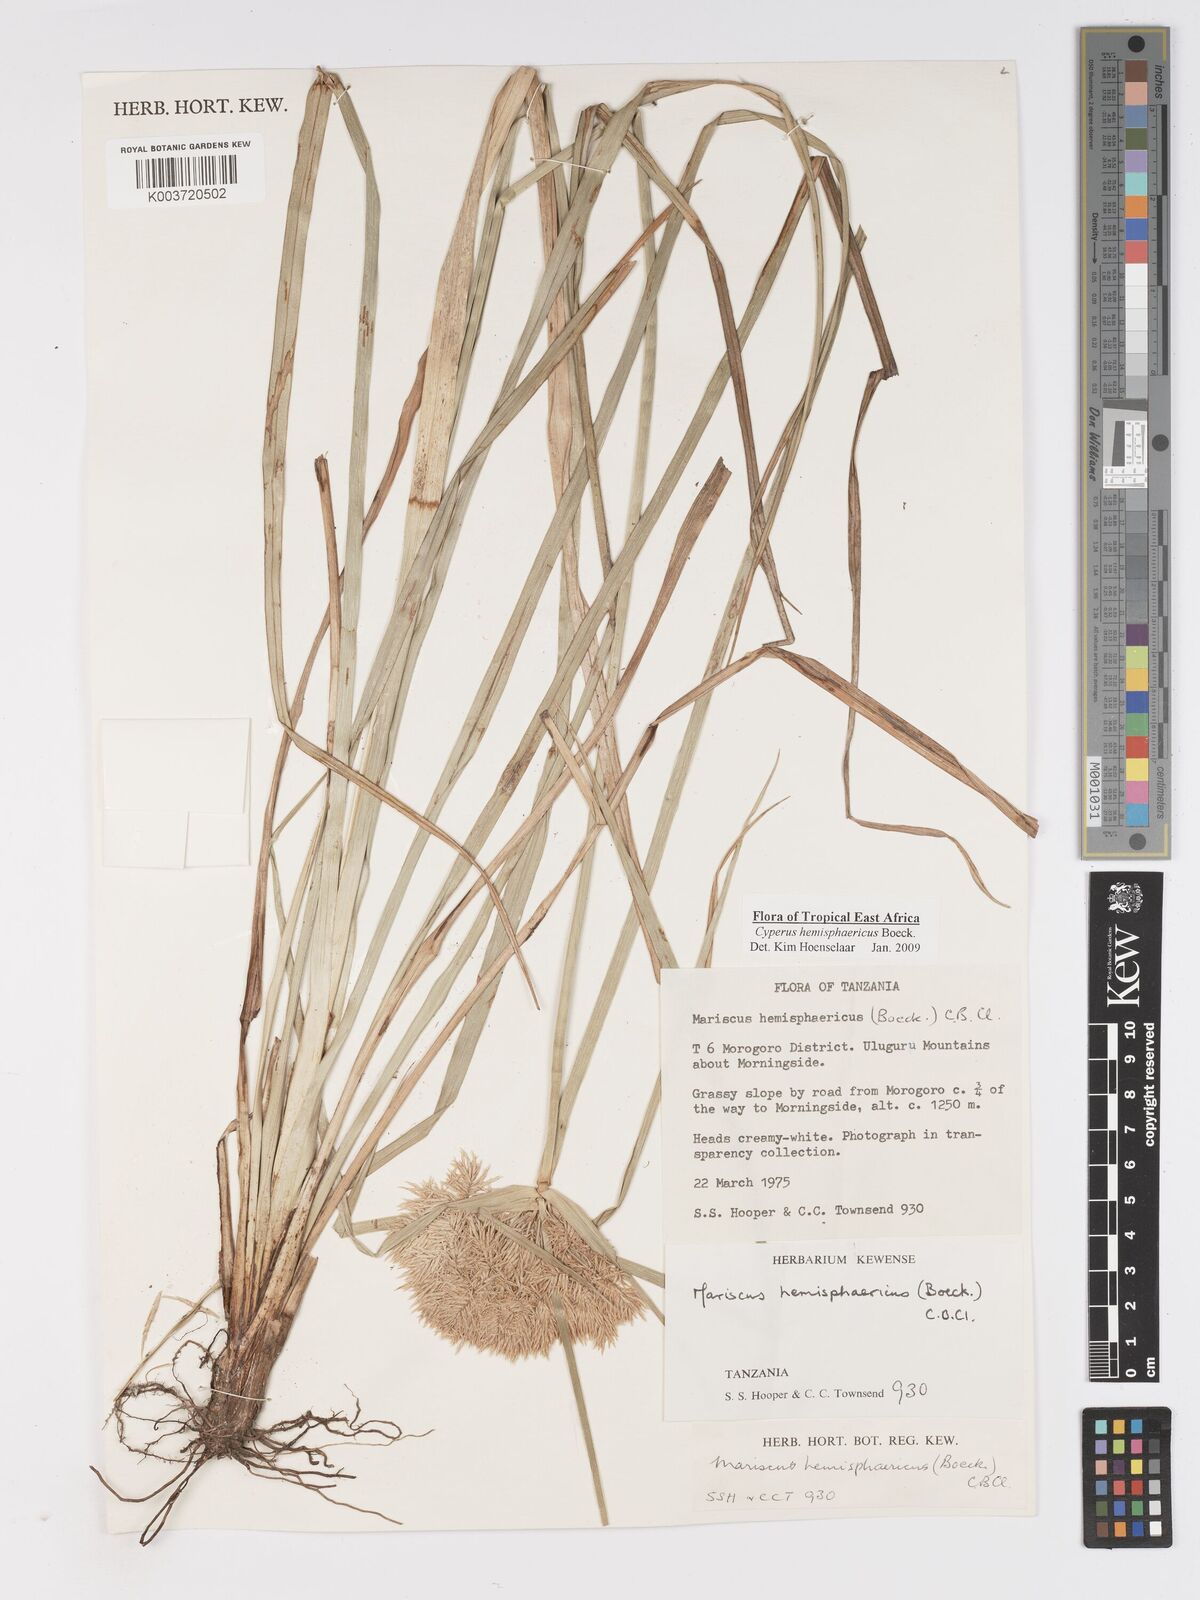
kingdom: Plantae
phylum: Tracheophyta
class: Liliopsida
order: Poales
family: Cyperaceae
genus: Cyperus
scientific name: Cyperus hemisphaericus
